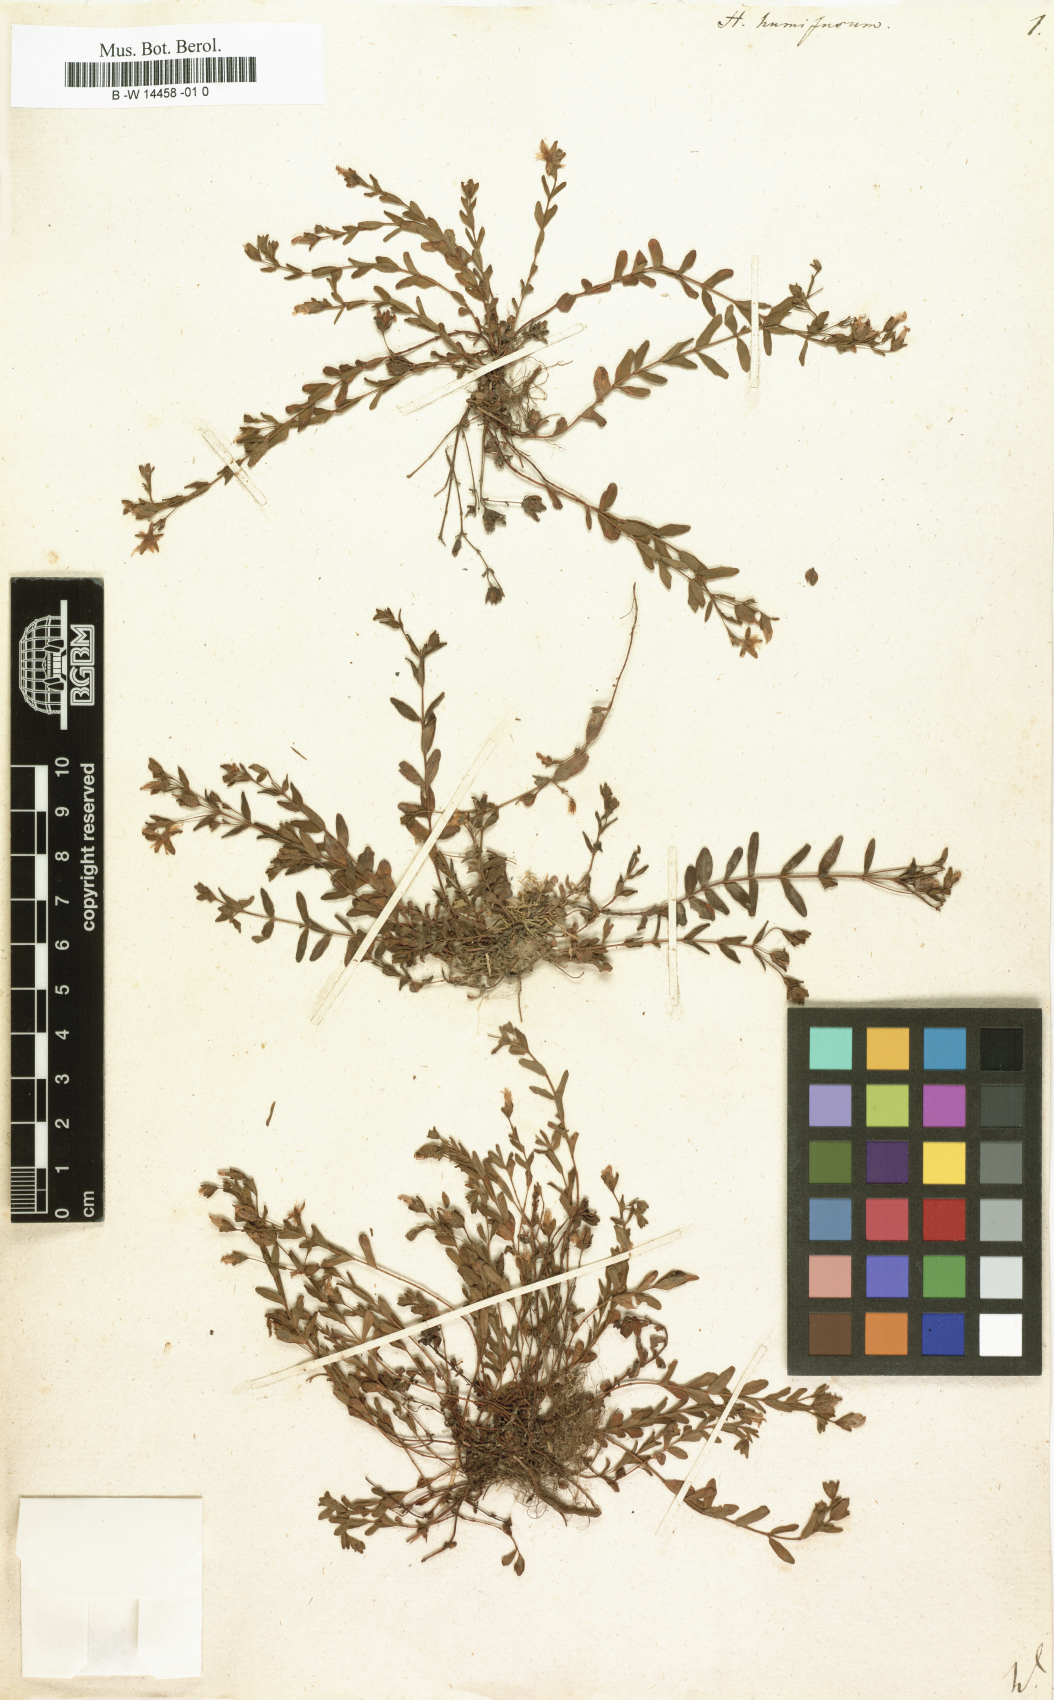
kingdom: Plantae
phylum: Tracheophyta
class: Magnoliopsida
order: Malpighiales
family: Hypericaceae
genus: Hypericum
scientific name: Hypericum humifusum
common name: Trailing st. john's-wort
